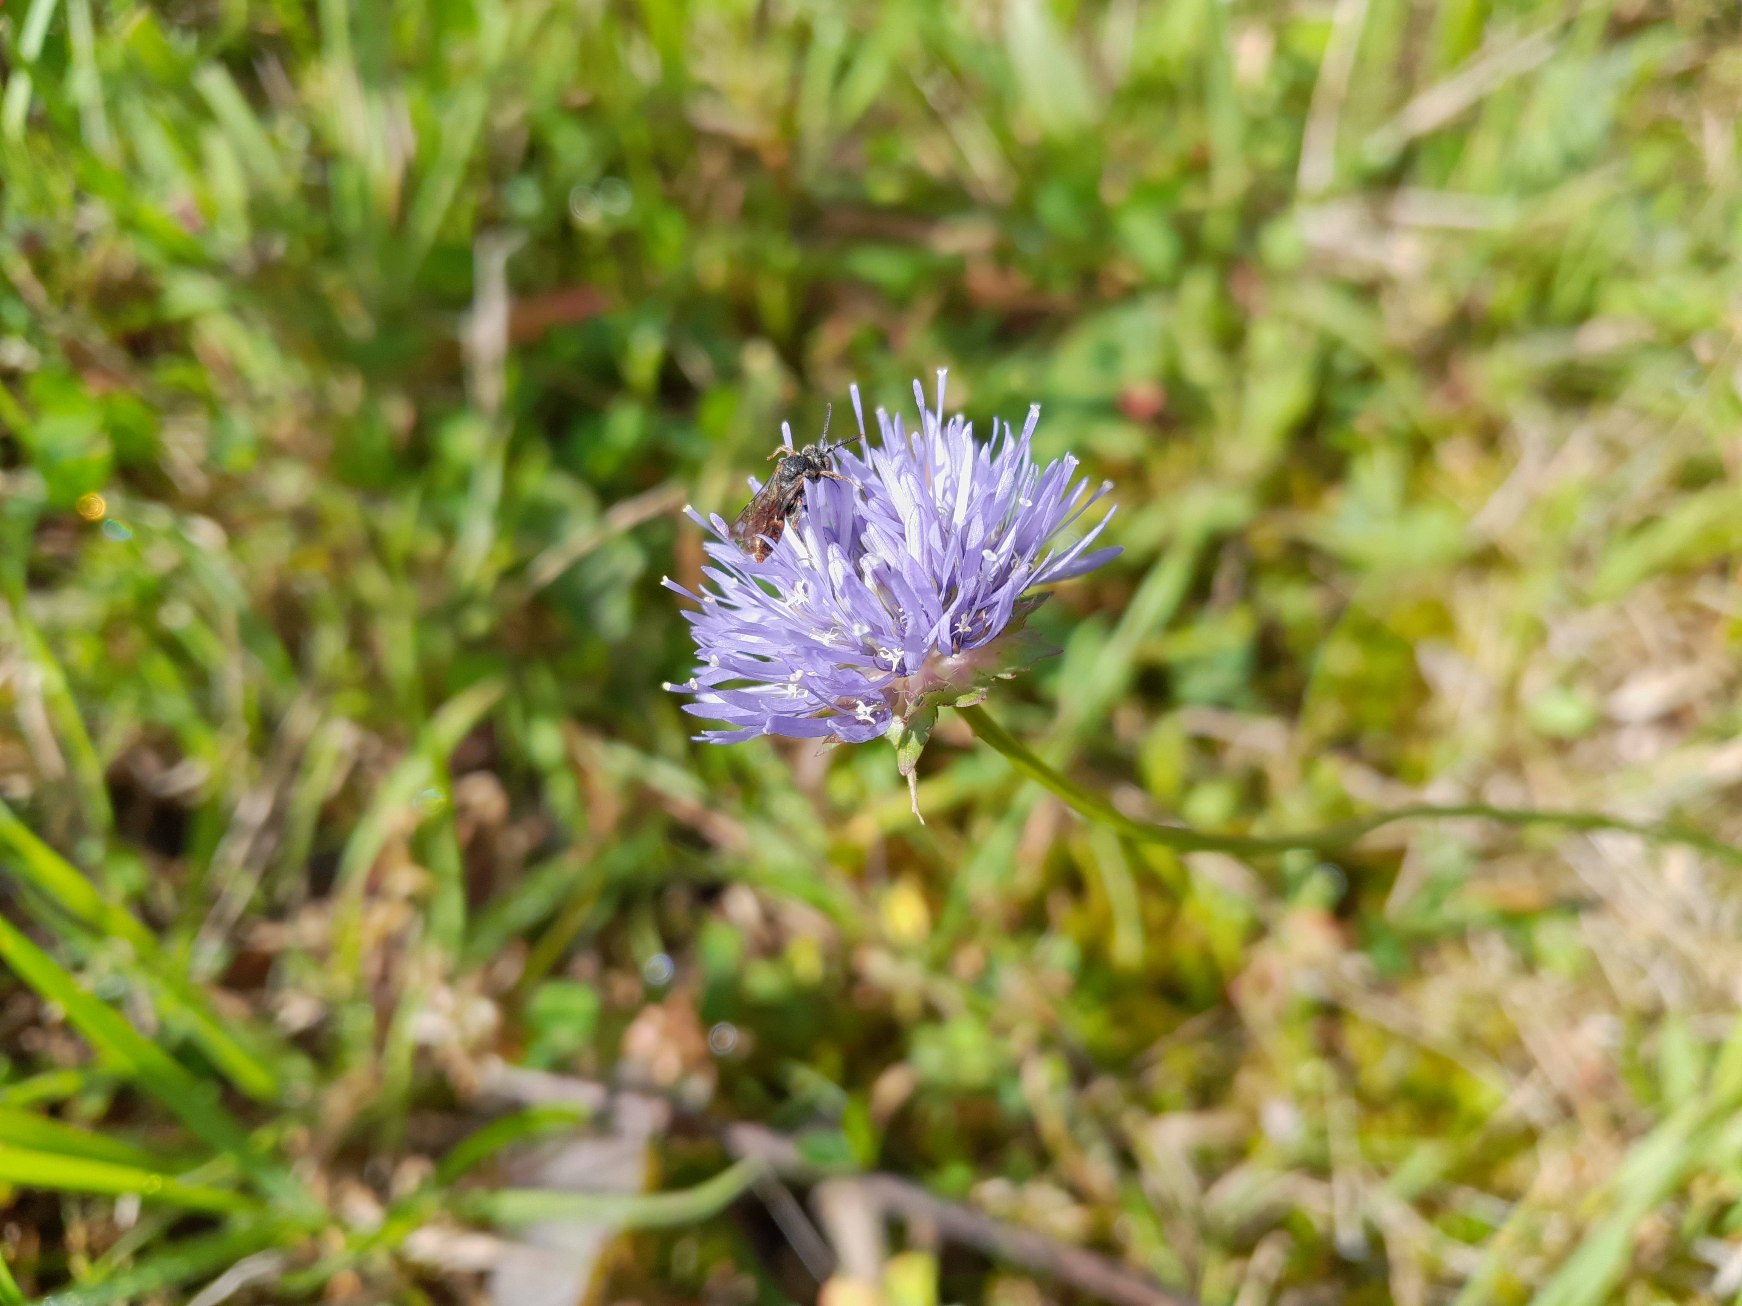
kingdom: Plantae
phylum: Tracheophyta
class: Magnoliopsida
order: Asterales
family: Campanulaceae
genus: Jasione
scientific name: Jasione montana
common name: Blåmunke
